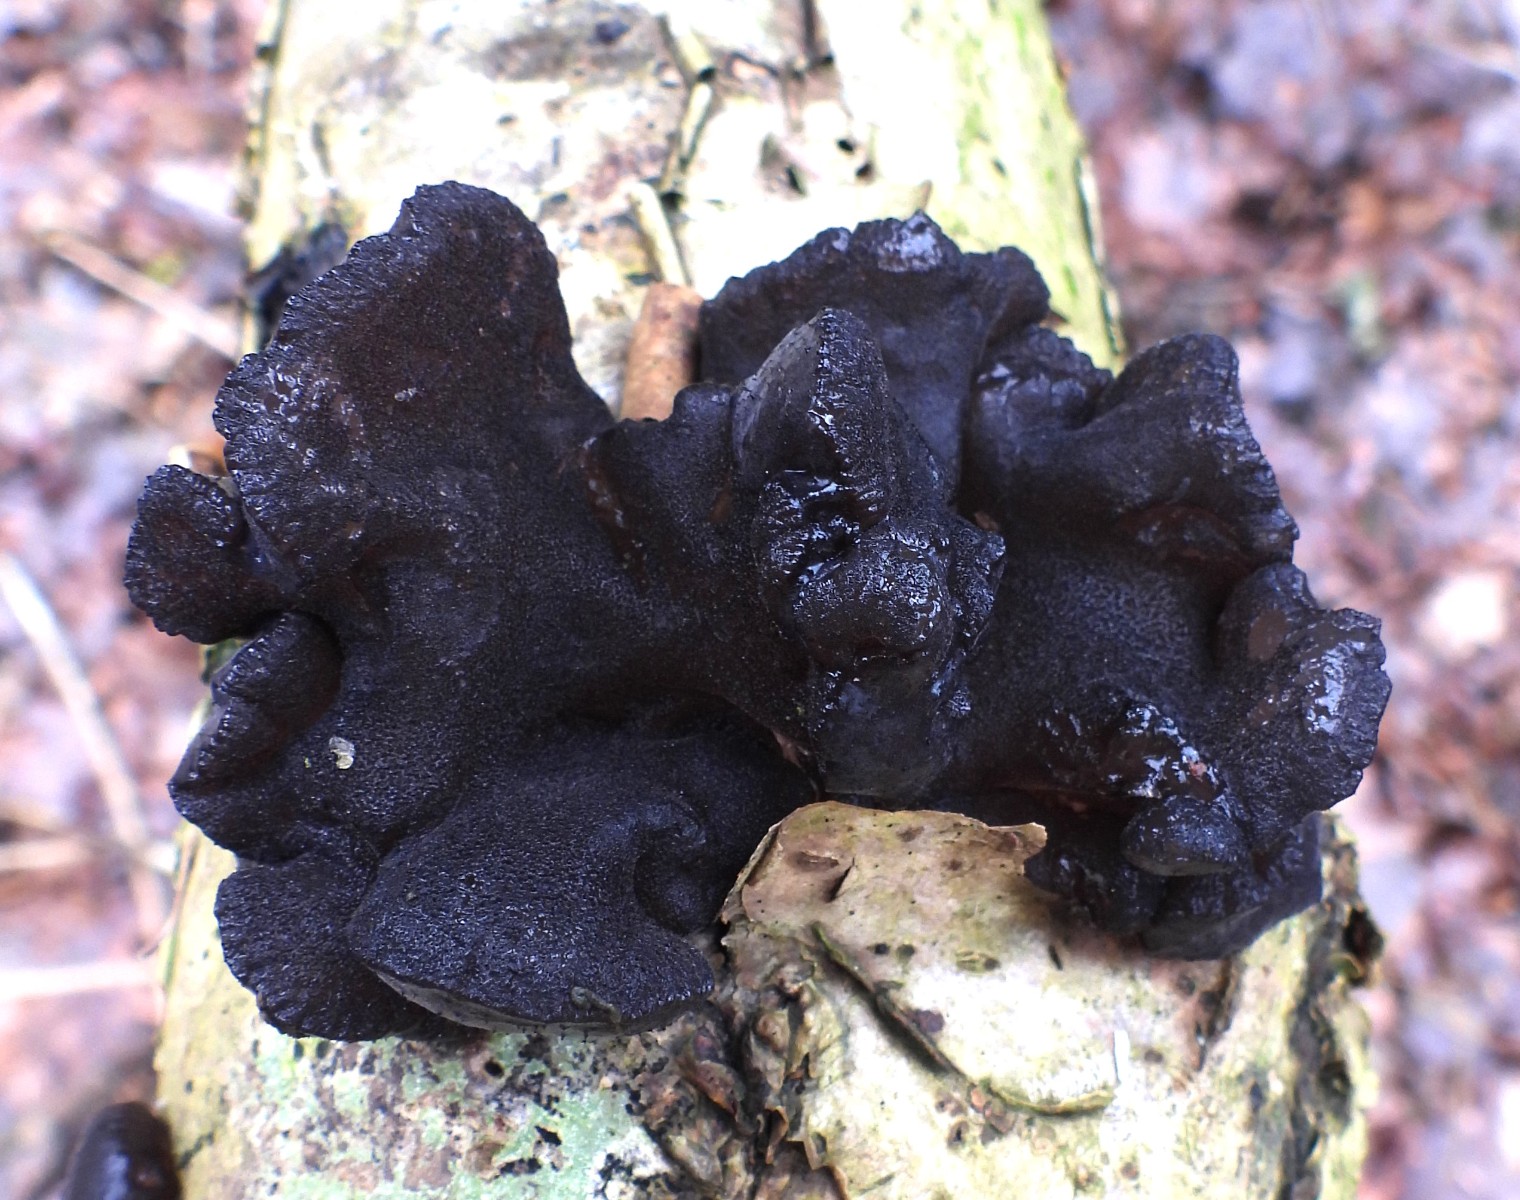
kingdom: Fungi
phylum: Basidiomycota
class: Agaricomycetes
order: Auriculariales
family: Auriculariaceae
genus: Exidia
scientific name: Exidia glandulosa
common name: ege-bævretop
